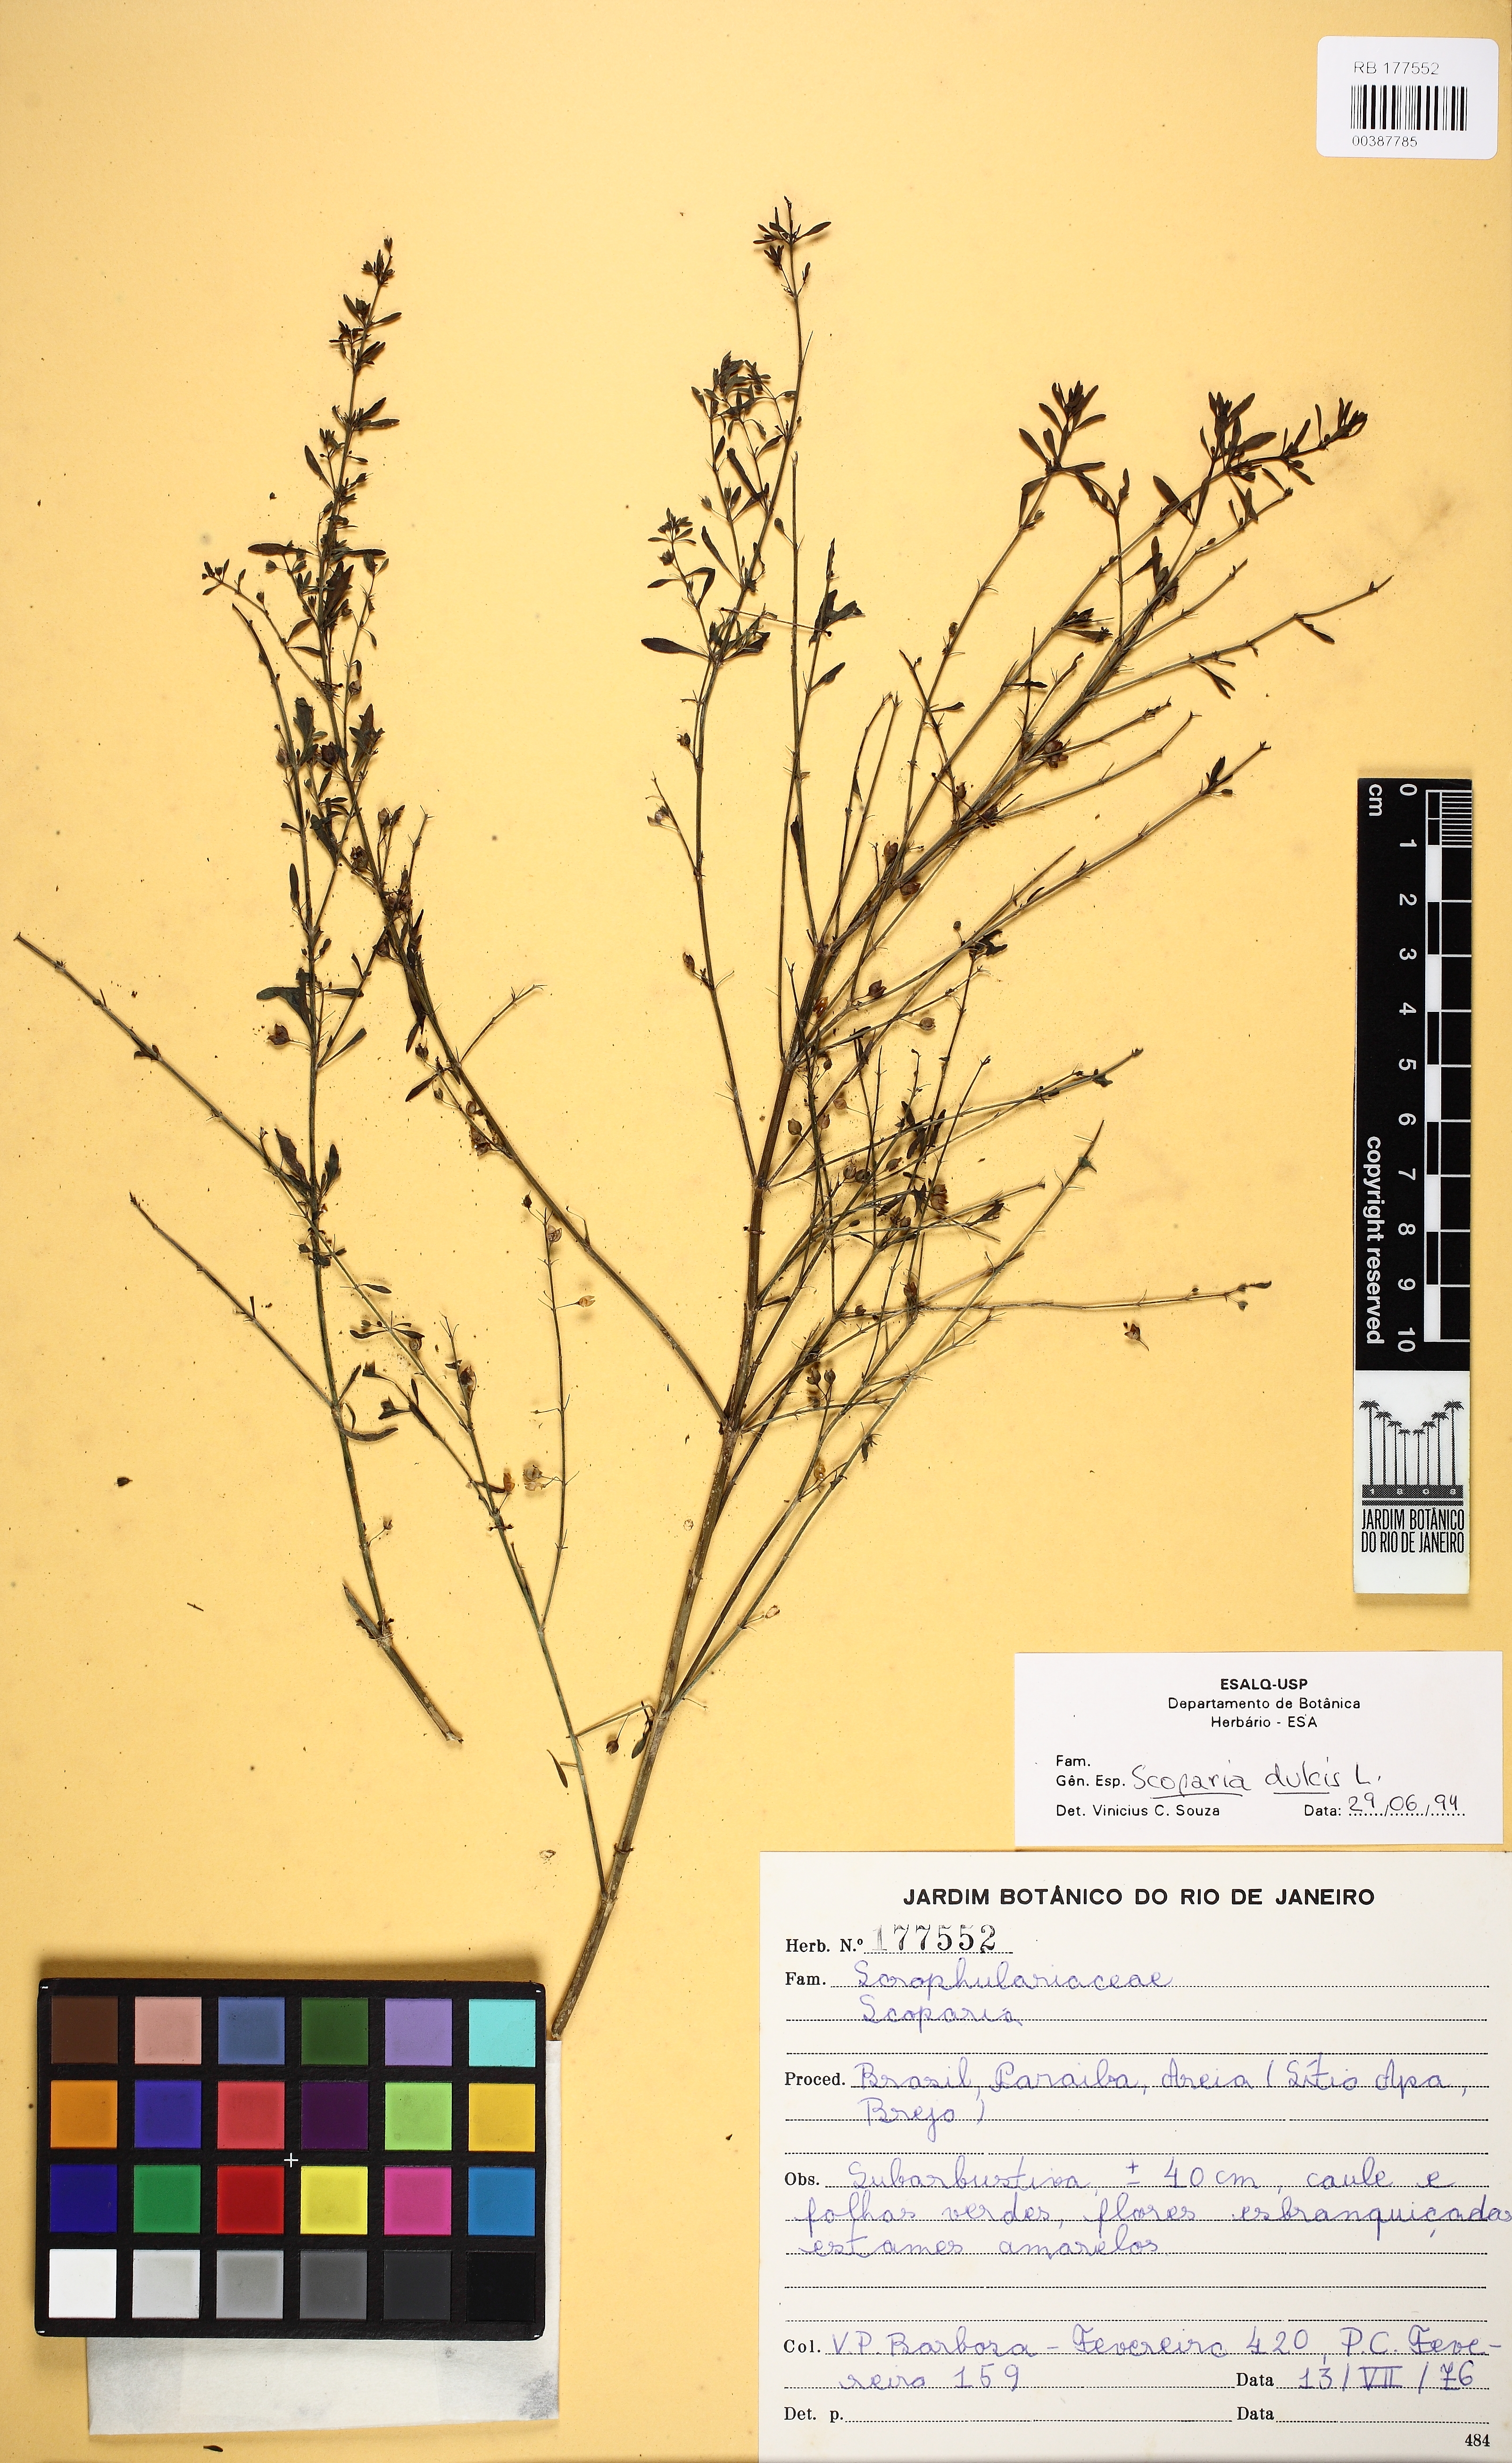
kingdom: Plantae
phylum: Tracheophyta
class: Magnoliopsida
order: Lamiales
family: Plantaginaceae
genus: Scoparia
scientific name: Scoparia dulcis
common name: Scoparia-weed
